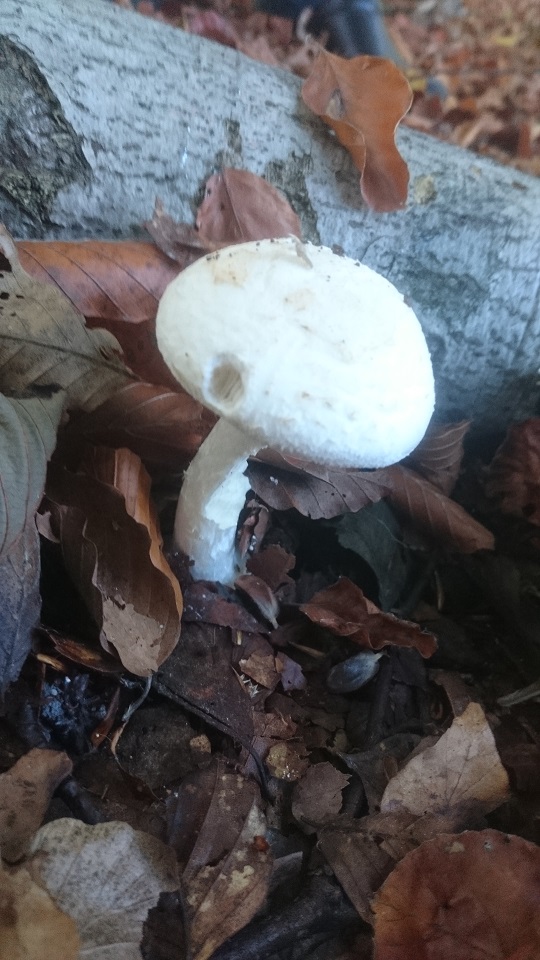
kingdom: Fungi
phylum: Basidiomycota
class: Agaricomycetes
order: Agaricales
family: Amanitaceae
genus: Amanita
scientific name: Amanita citrina
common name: False death-cap
